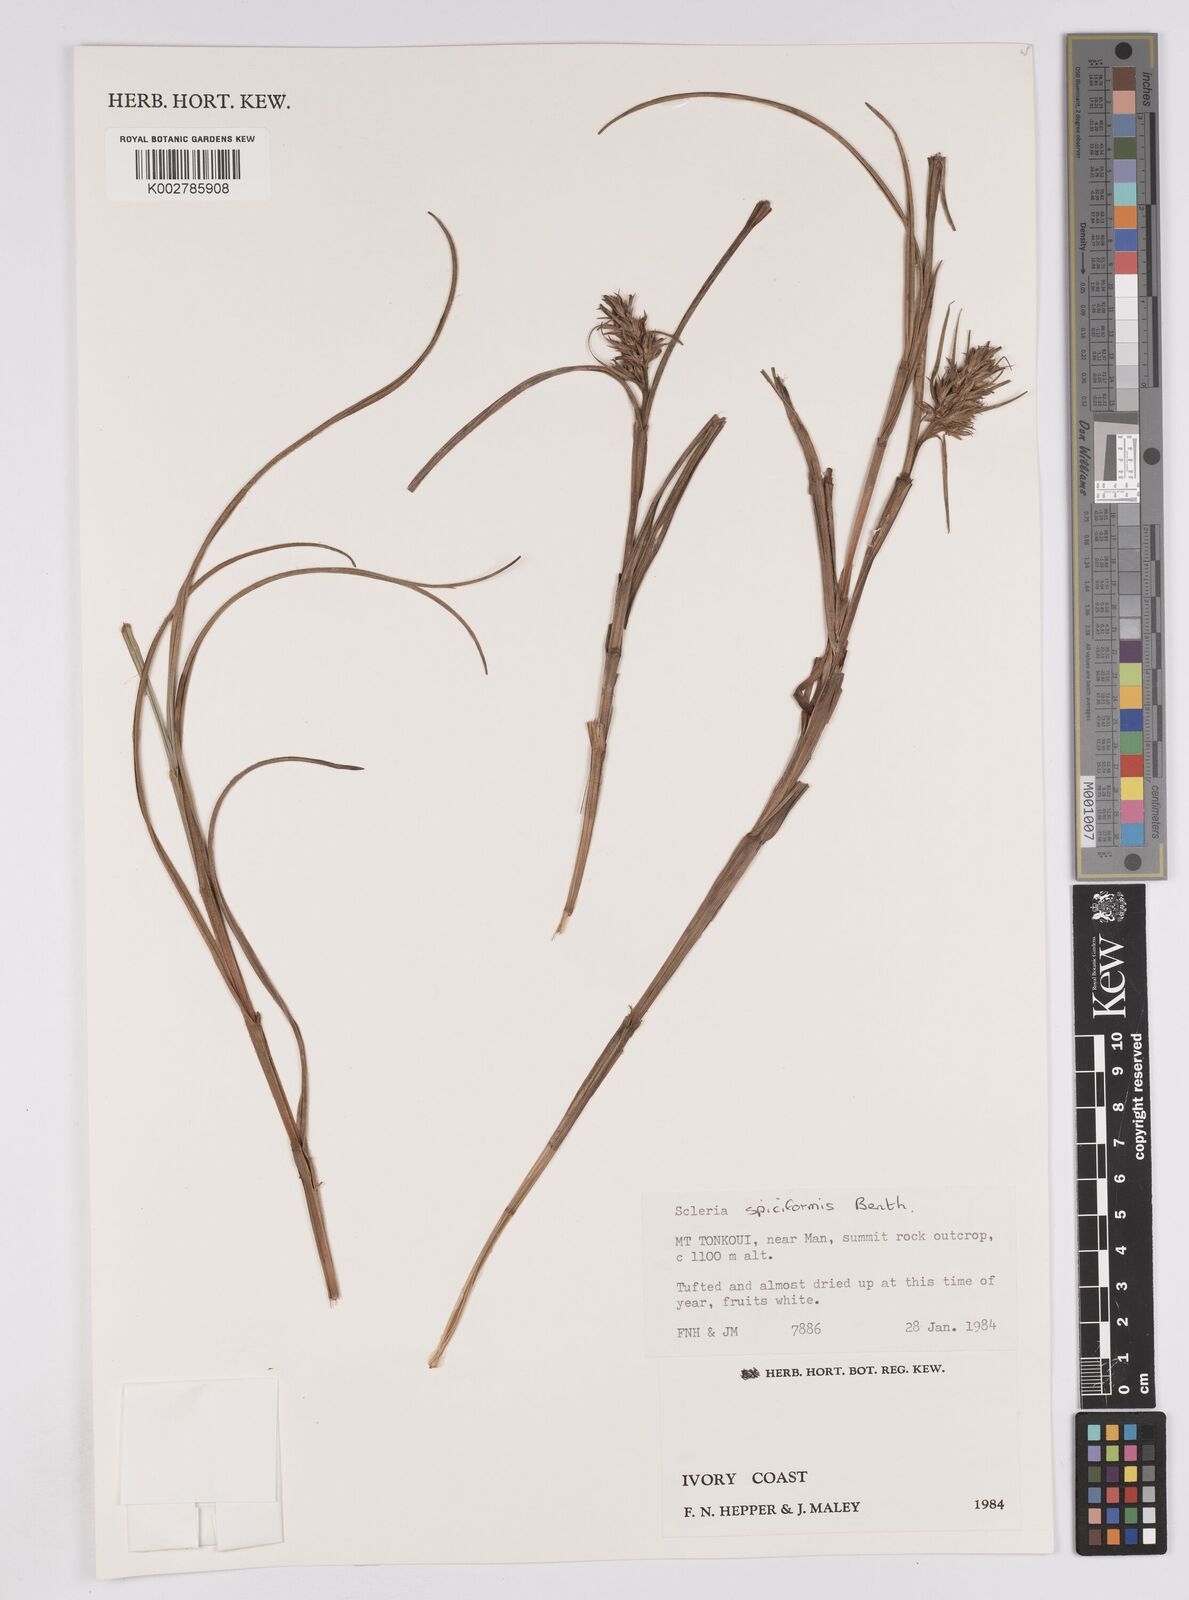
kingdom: Plantae
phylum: Tracheophyta
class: Liliopsida
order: Poales
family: Cyperaceae
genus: Scleria
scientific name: Scleria spiciformis
